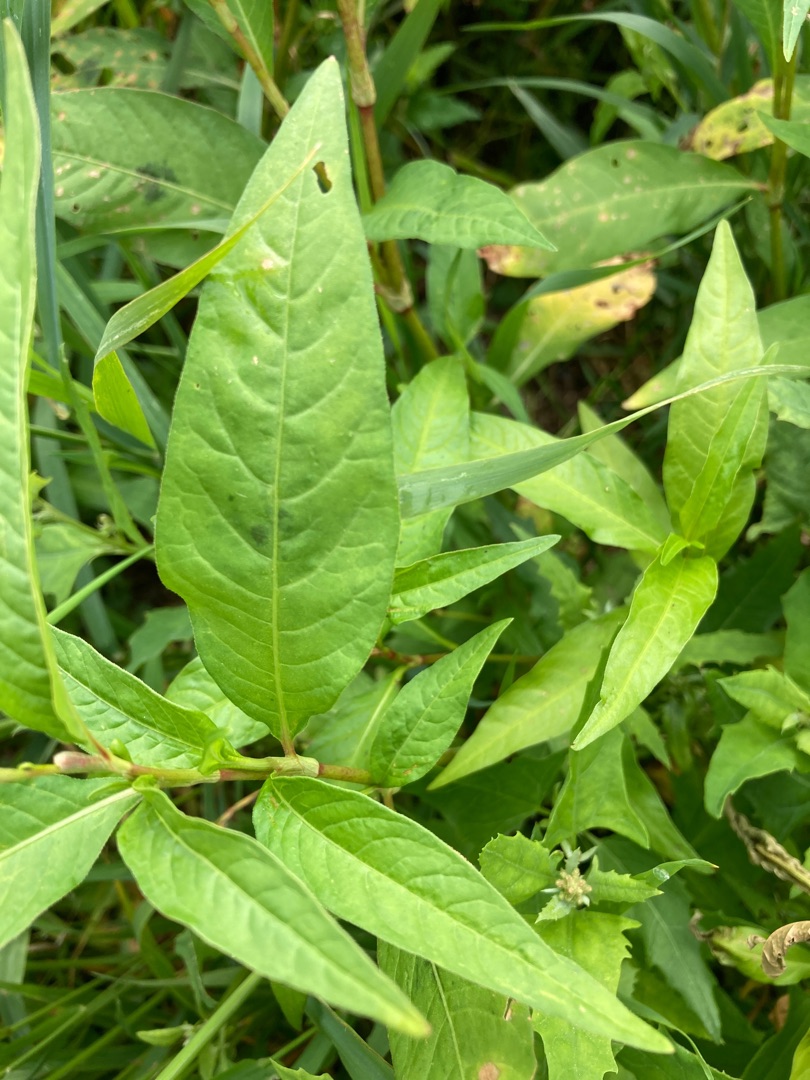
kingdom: Plantae
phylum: Tracheophyta
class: Magnoliopsida
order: Caryophyllales
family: Polygonaceae
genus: Persicaria
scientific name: Persicaria maculosa
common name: Fersken-pileurt
